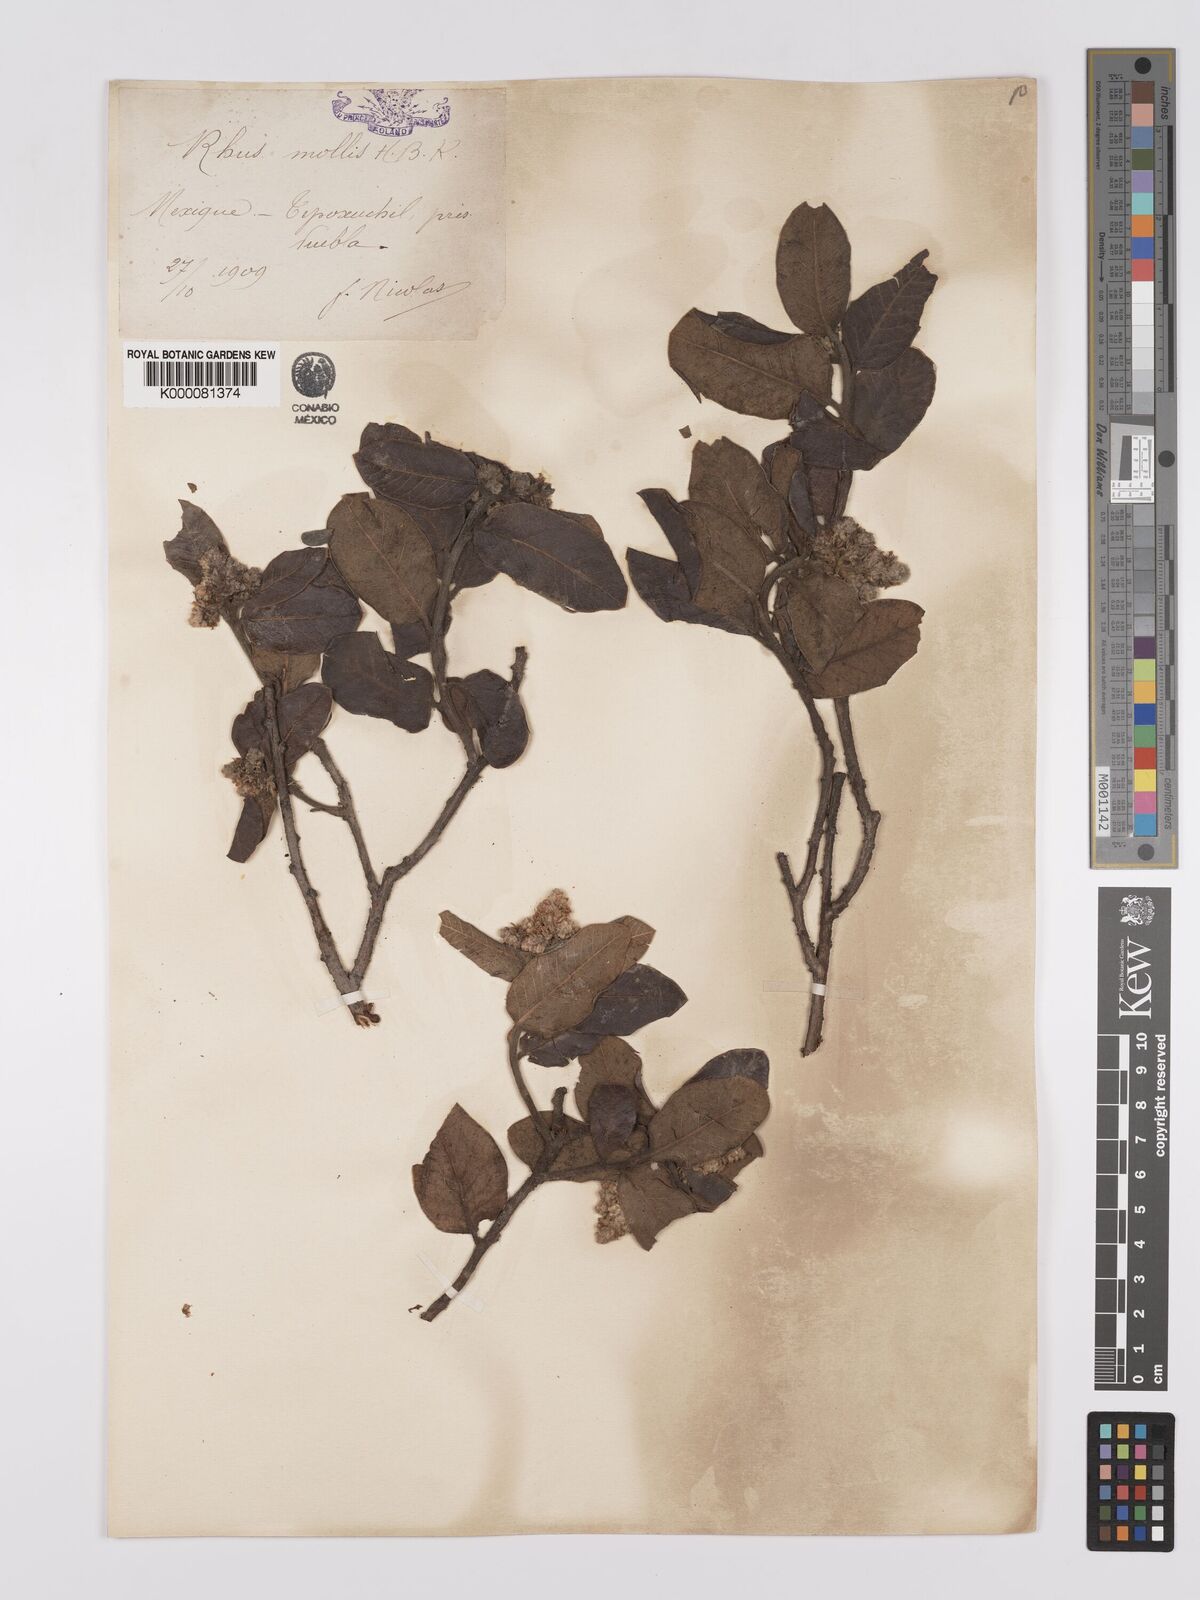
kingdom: Plantae
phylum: Tracheophyta
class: Magnoliopsida
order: Sapindales
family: Anacardiaceae
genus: Rhus
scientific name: Rhus standleyi
